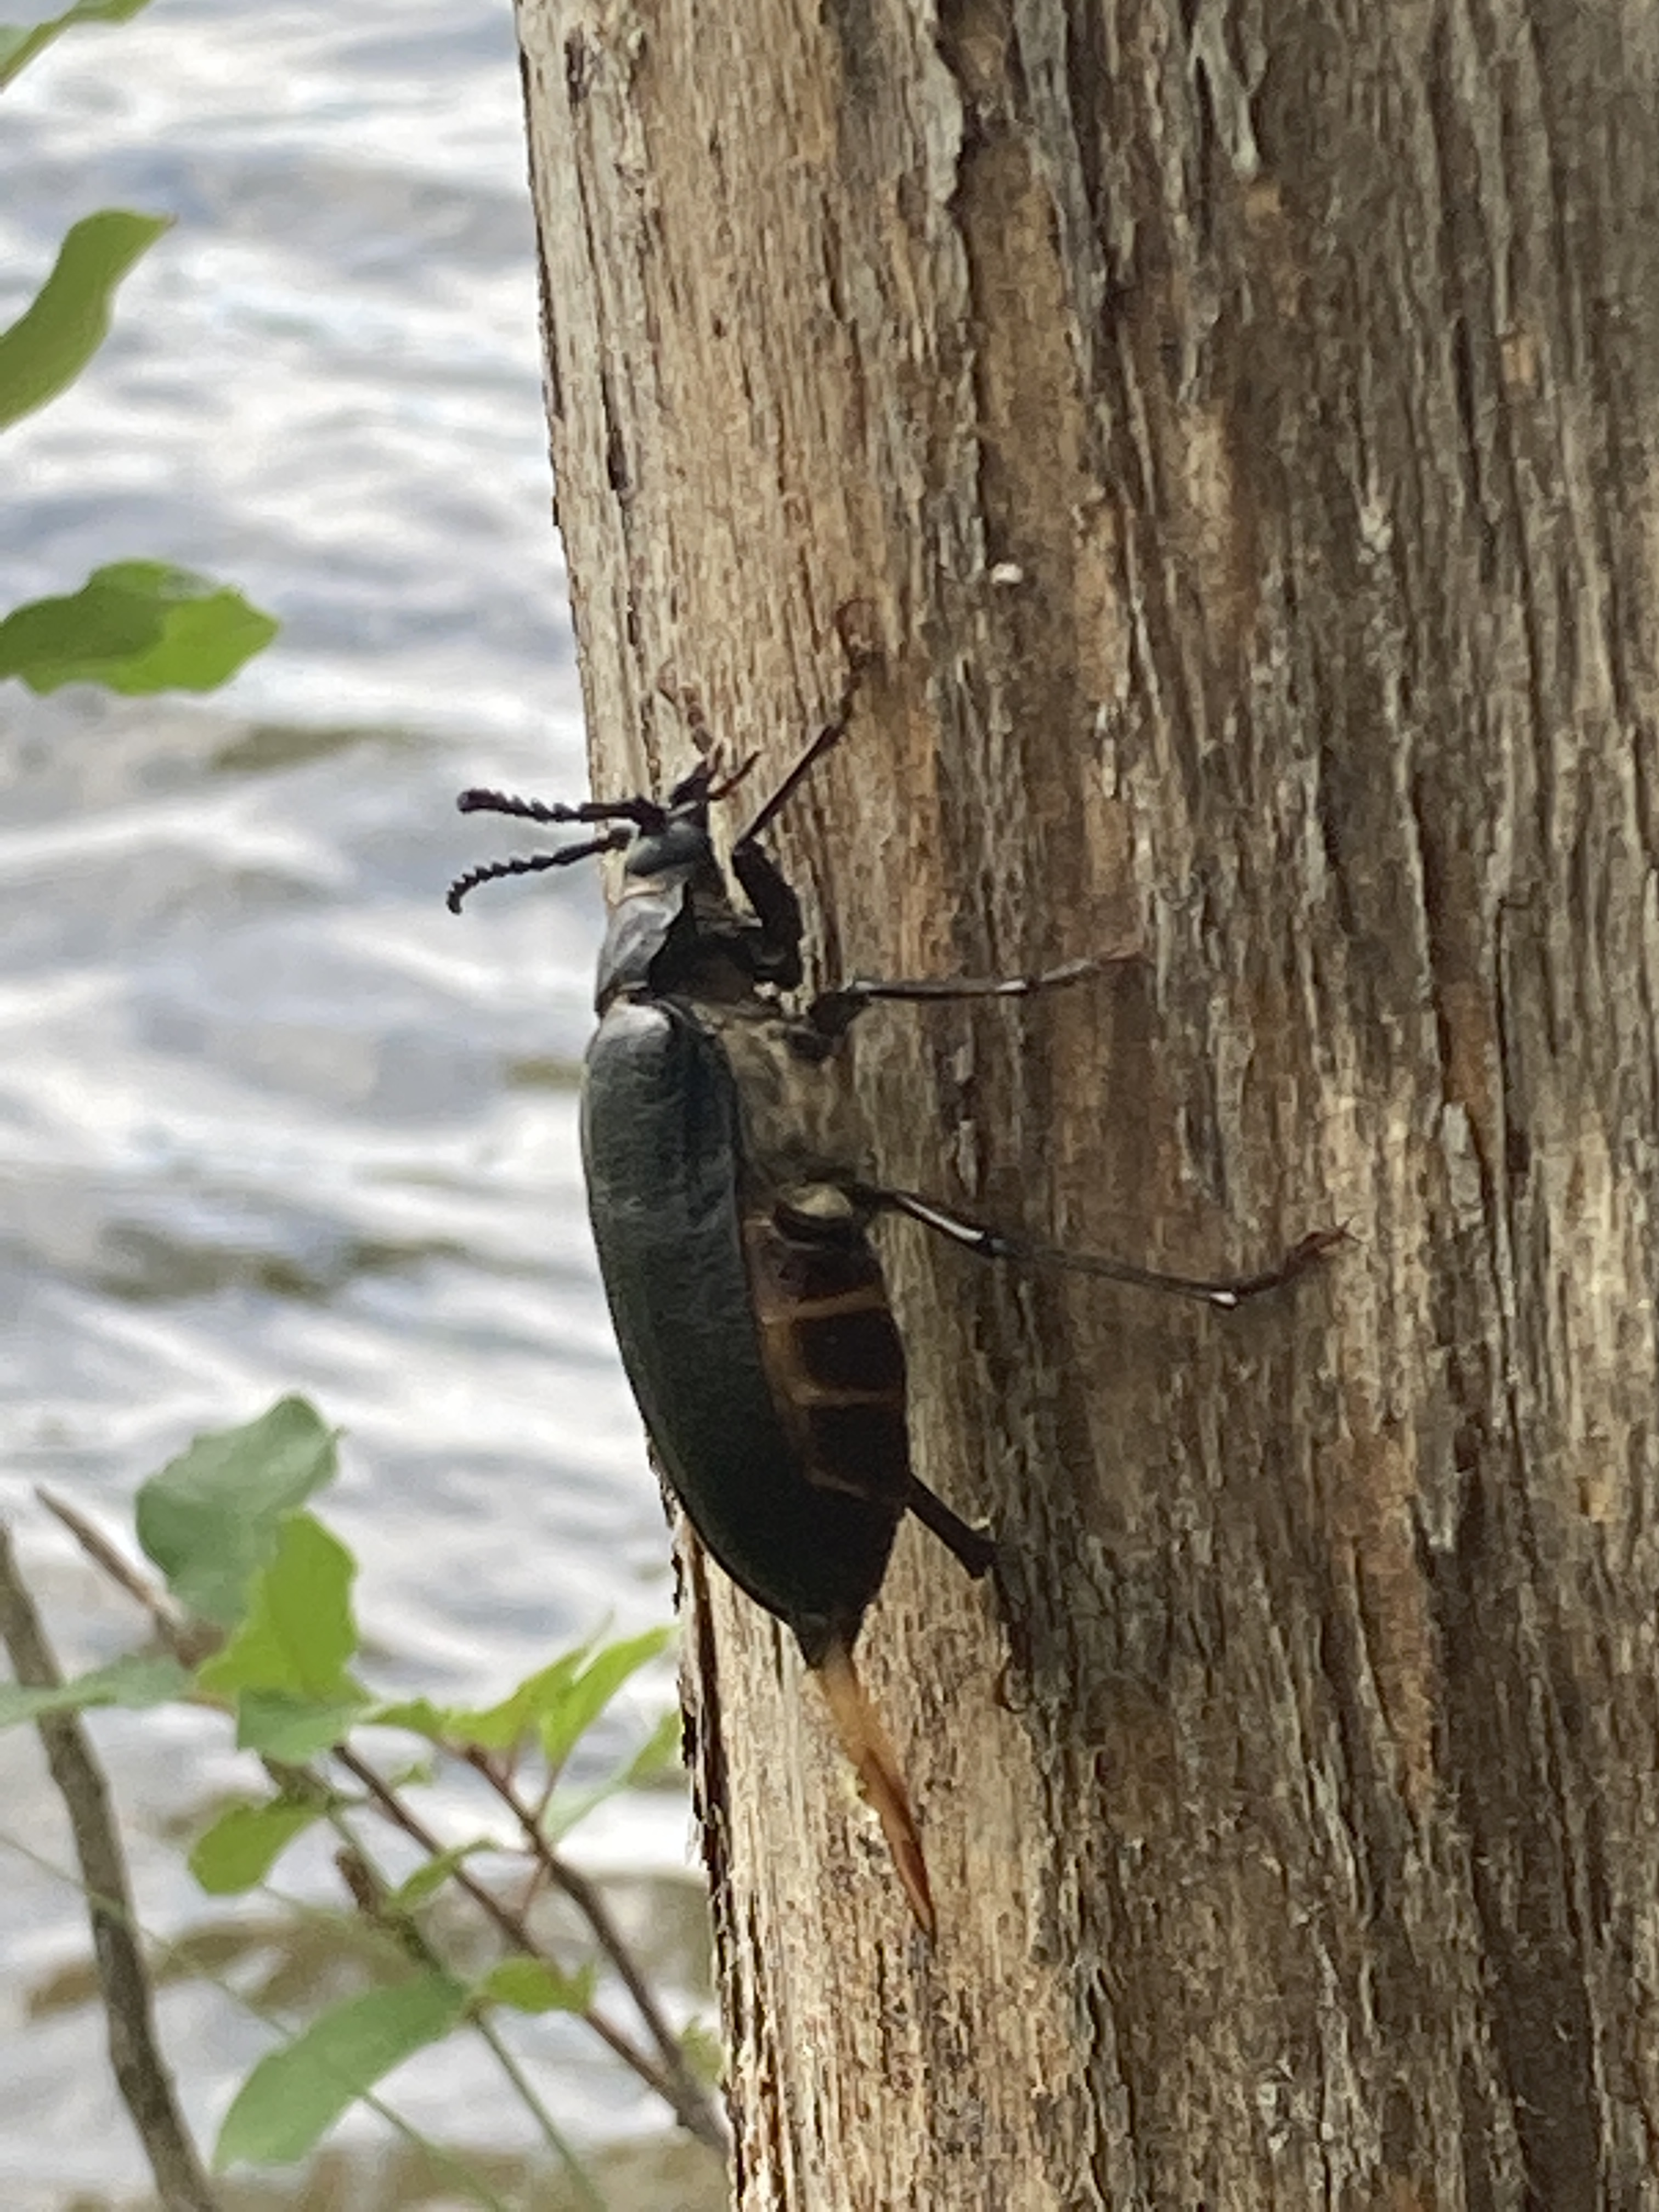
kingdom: Animalia
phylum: Arthropoda
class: Insecta
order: Coleoptera
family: Cerambycidae
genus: Prionus
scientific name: Prionus coriarius
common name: Tanner beetle
